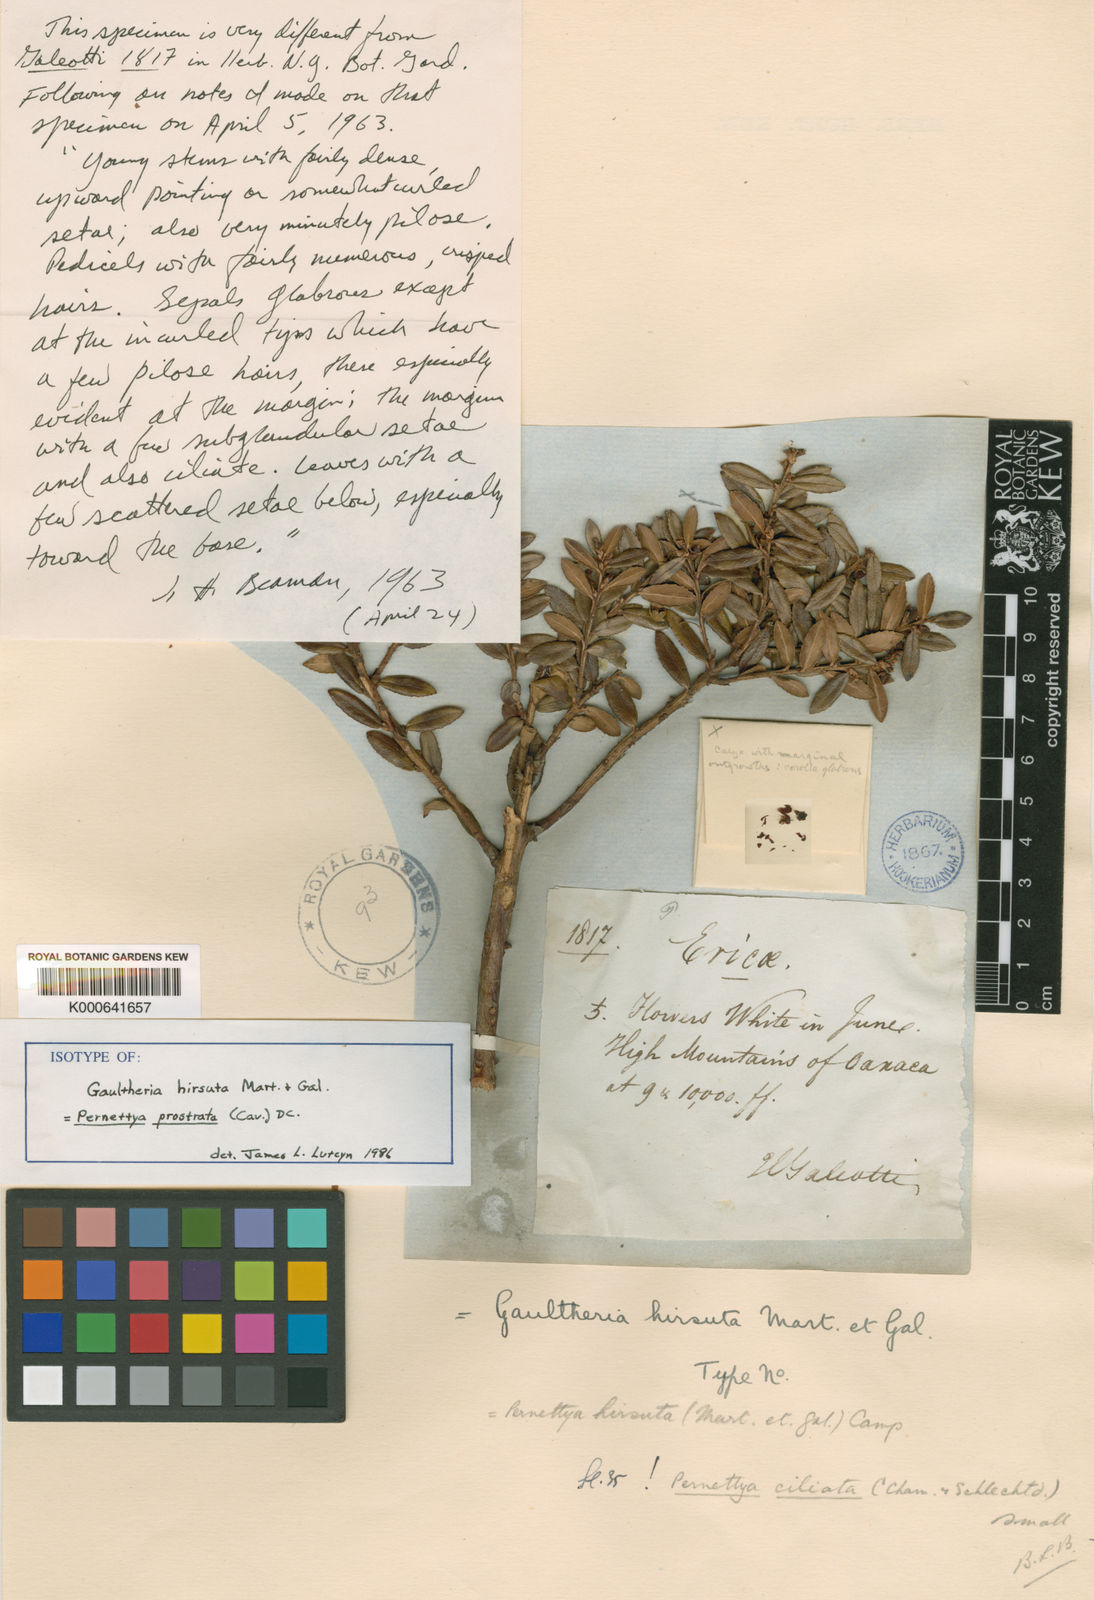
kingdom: Plantae
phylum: Tracheophyta
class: Magnoliopsida
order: Ericales
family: Ericaceae
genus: Gaultheria
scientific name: Gaultheria myrsinoides
